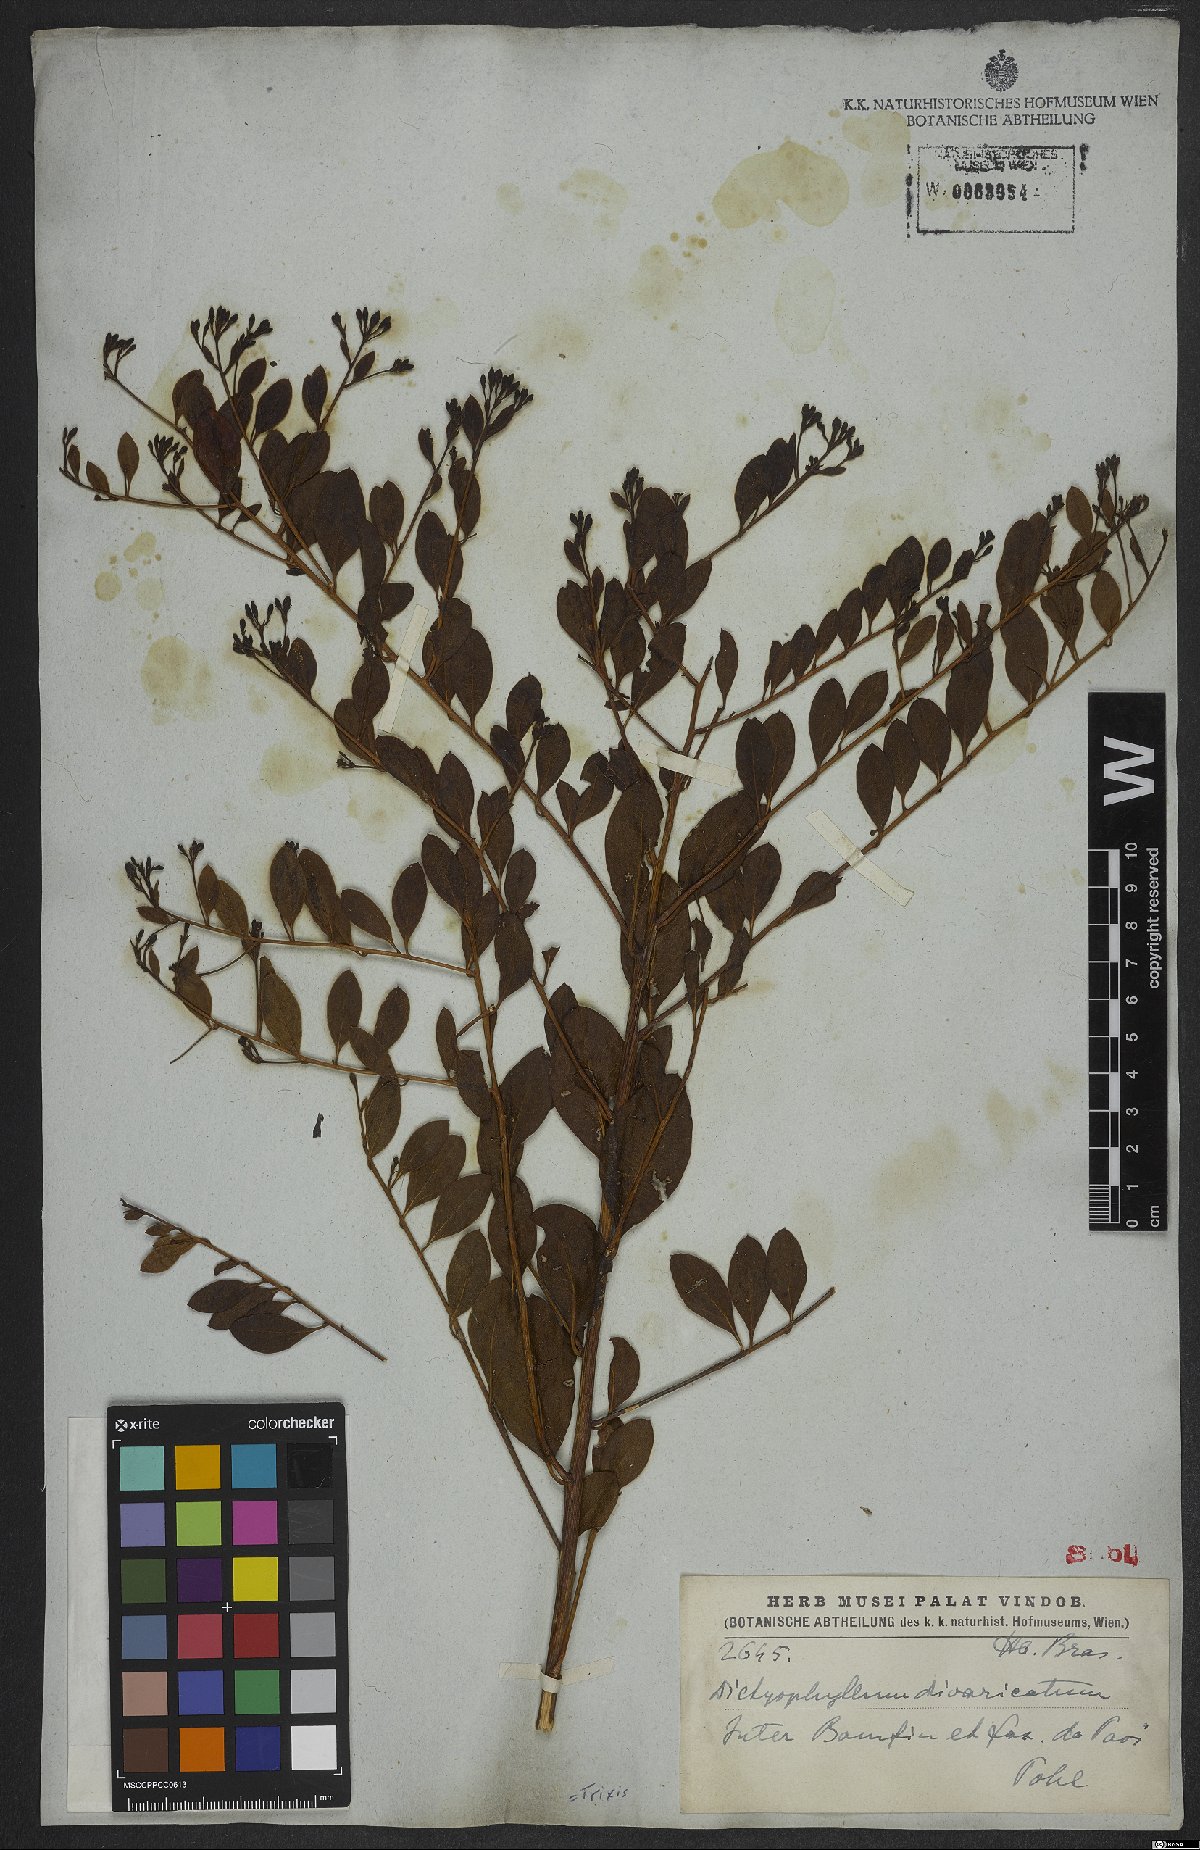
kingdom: Plantae
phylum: Tracheophyta
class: Magnoliopsida
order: Asterales
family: Asteraceae
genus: Trixis
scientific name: Trixis
